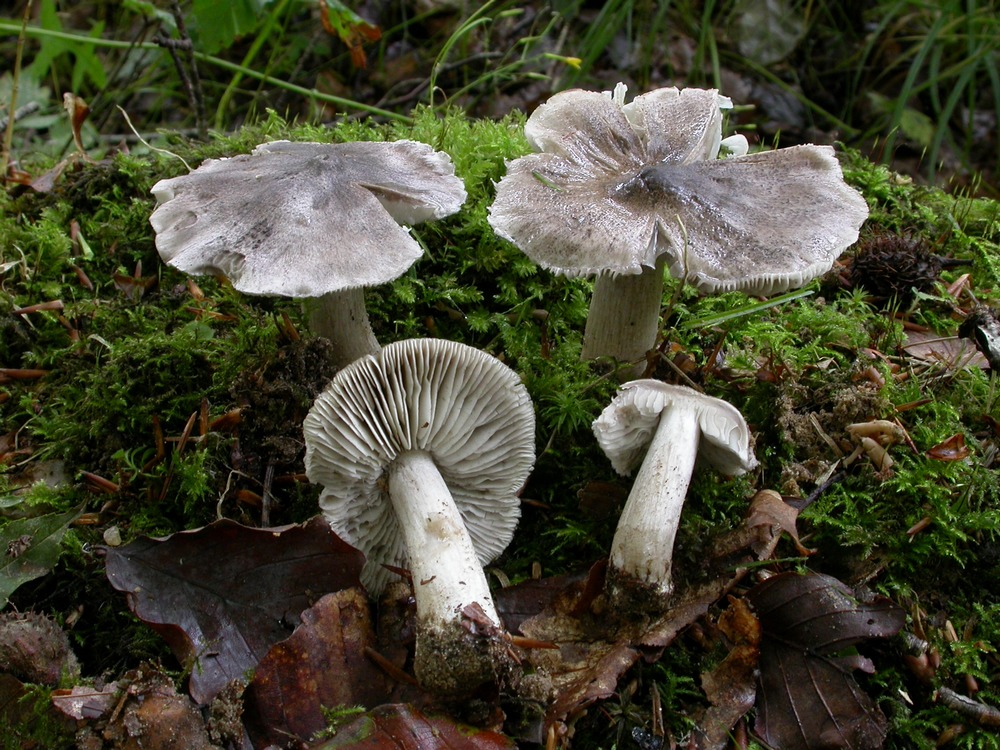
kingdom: Fungi
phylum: Basidiomycota
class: Agaricomycetes
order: Agaricales
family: Tricholomataceae
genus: Tricholoma
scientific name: Tricholoma sciodes
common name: stribet ridderhat
